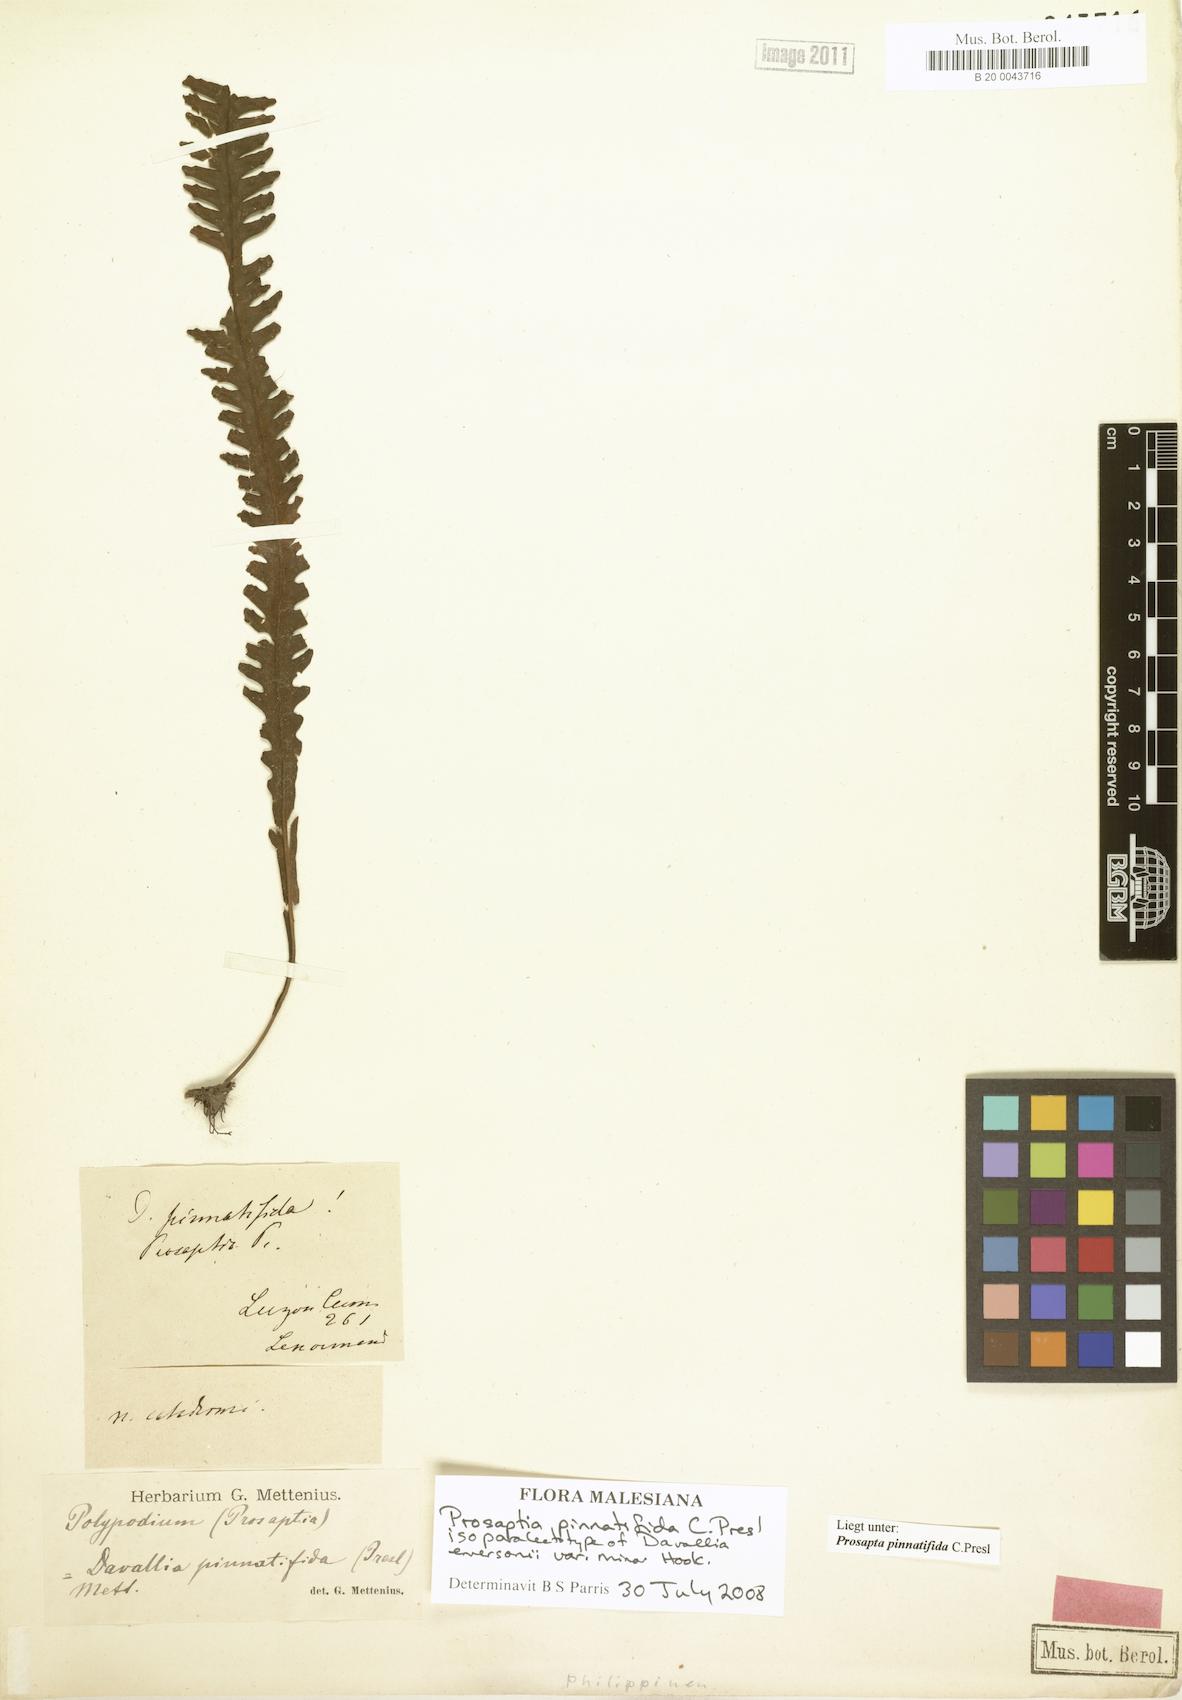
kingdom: Plantae
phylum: Tracheophyta
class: Polypodiopsida
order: Polypodiales
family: Polypodiaceae
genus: Prosaptia
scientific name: Prosaptia pinnatifida
